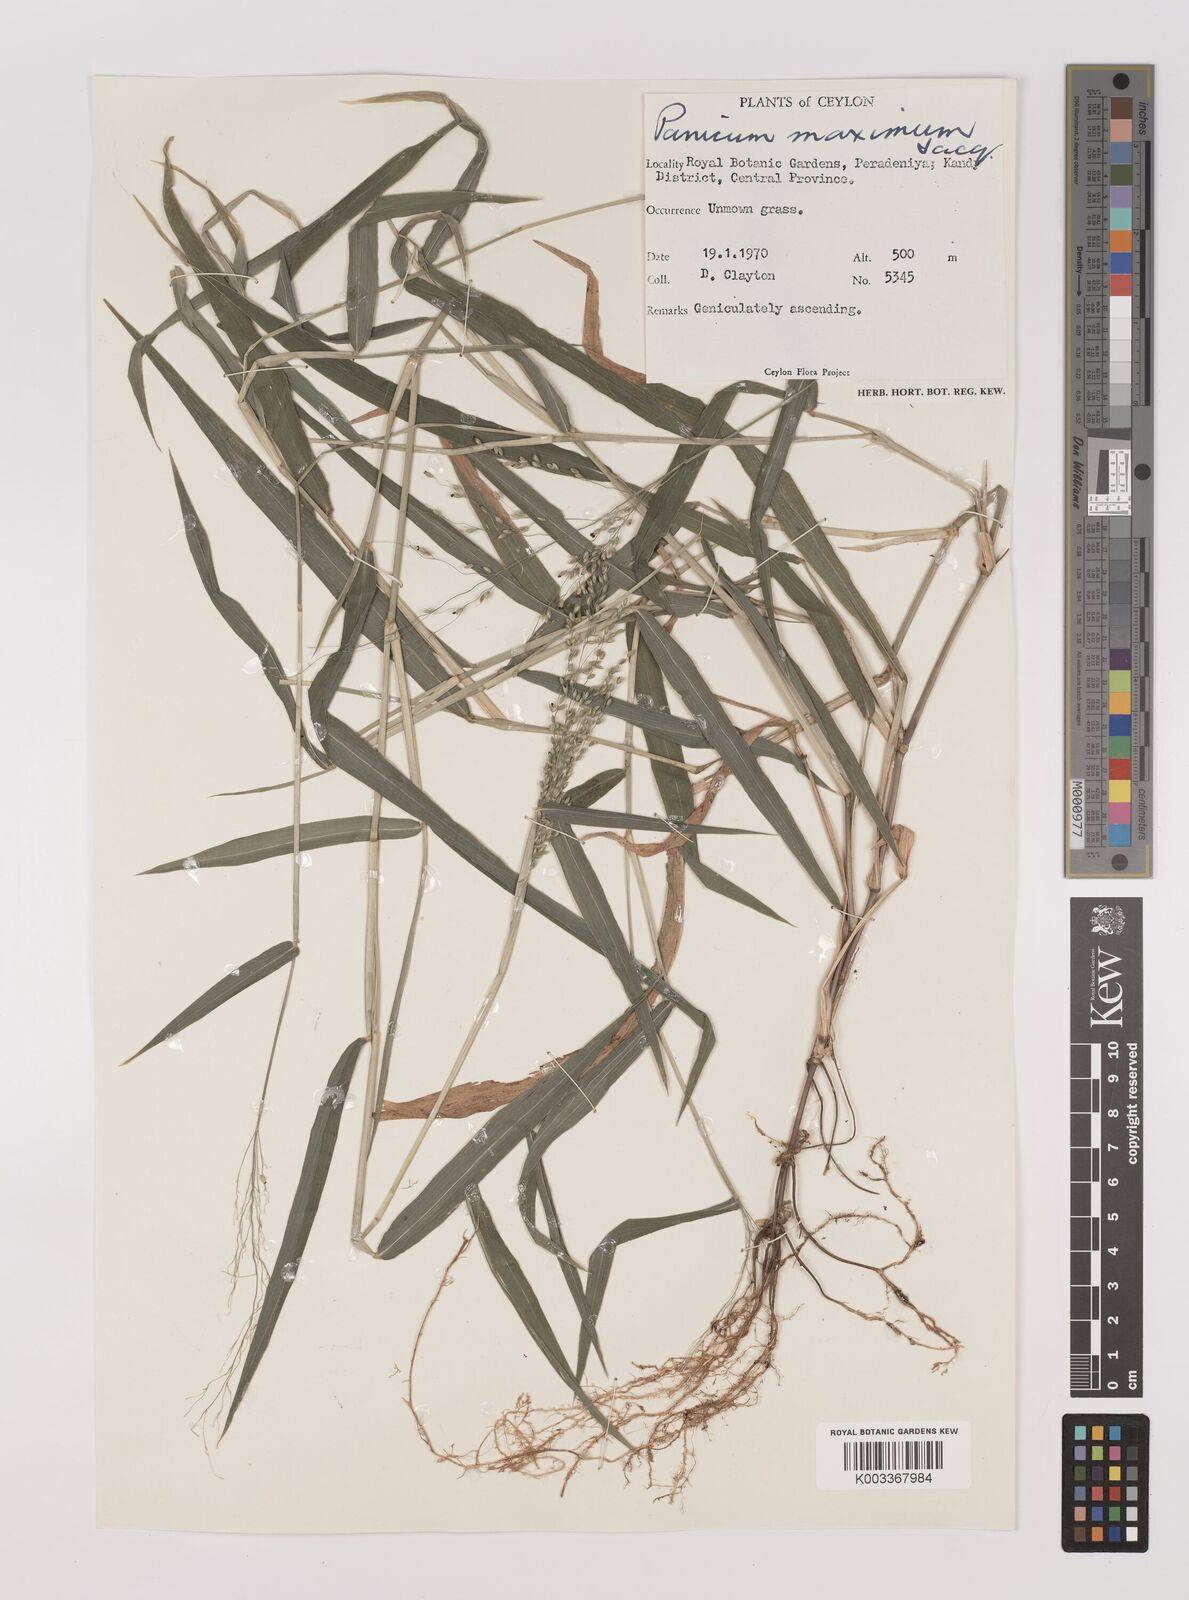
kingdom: Plantae
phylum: Tracheophyta
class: Liliopsida
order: Poales
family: Poaceae
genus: Megathyrsus
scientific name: Megathyrsus maximus
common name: Guineagrass
